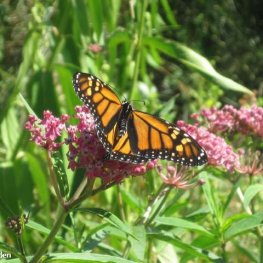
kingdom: Animalia
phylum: Arthropoda
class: Insecta
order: Lepidoptera
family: Nymphalidae
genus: Danaus
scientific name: Danaus plexippus
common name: Monarch
